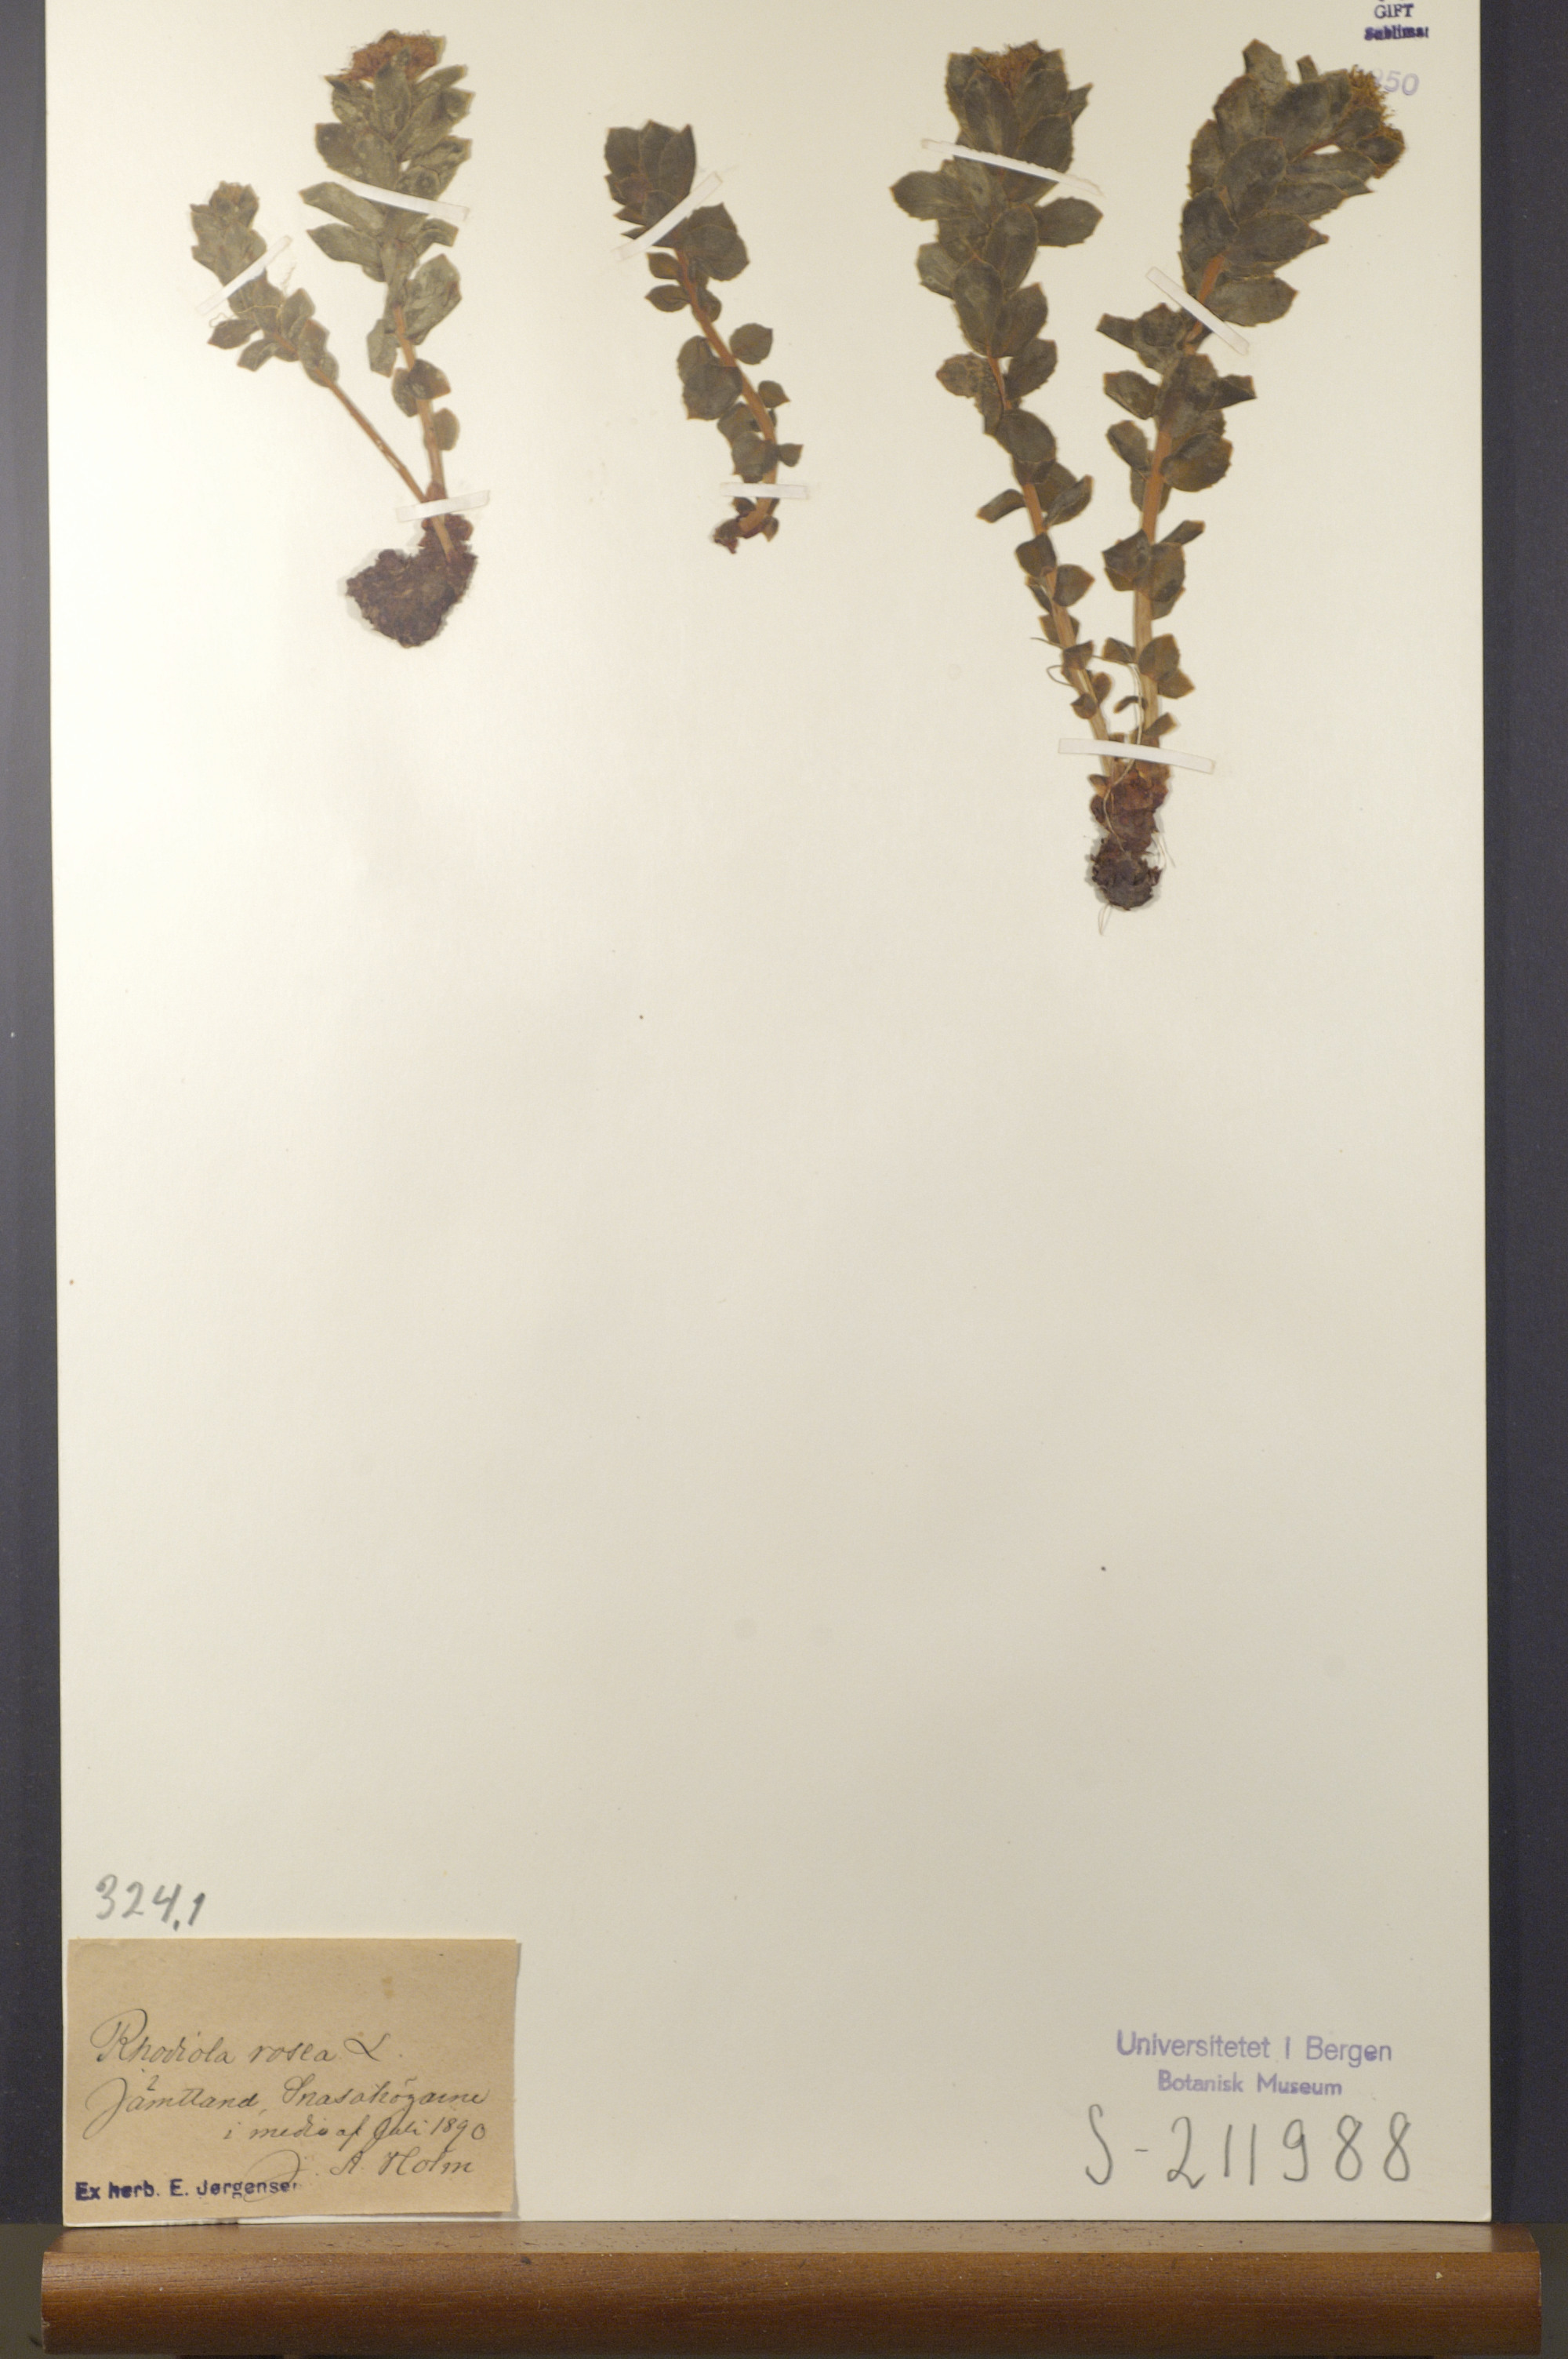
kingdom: Plantae
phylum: Tracheophyta
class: Magnoliopsida
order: Saxifragales
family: Crassulaceae
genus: Rhodiola
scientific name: Rhodiola rosea
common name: Roseroot
